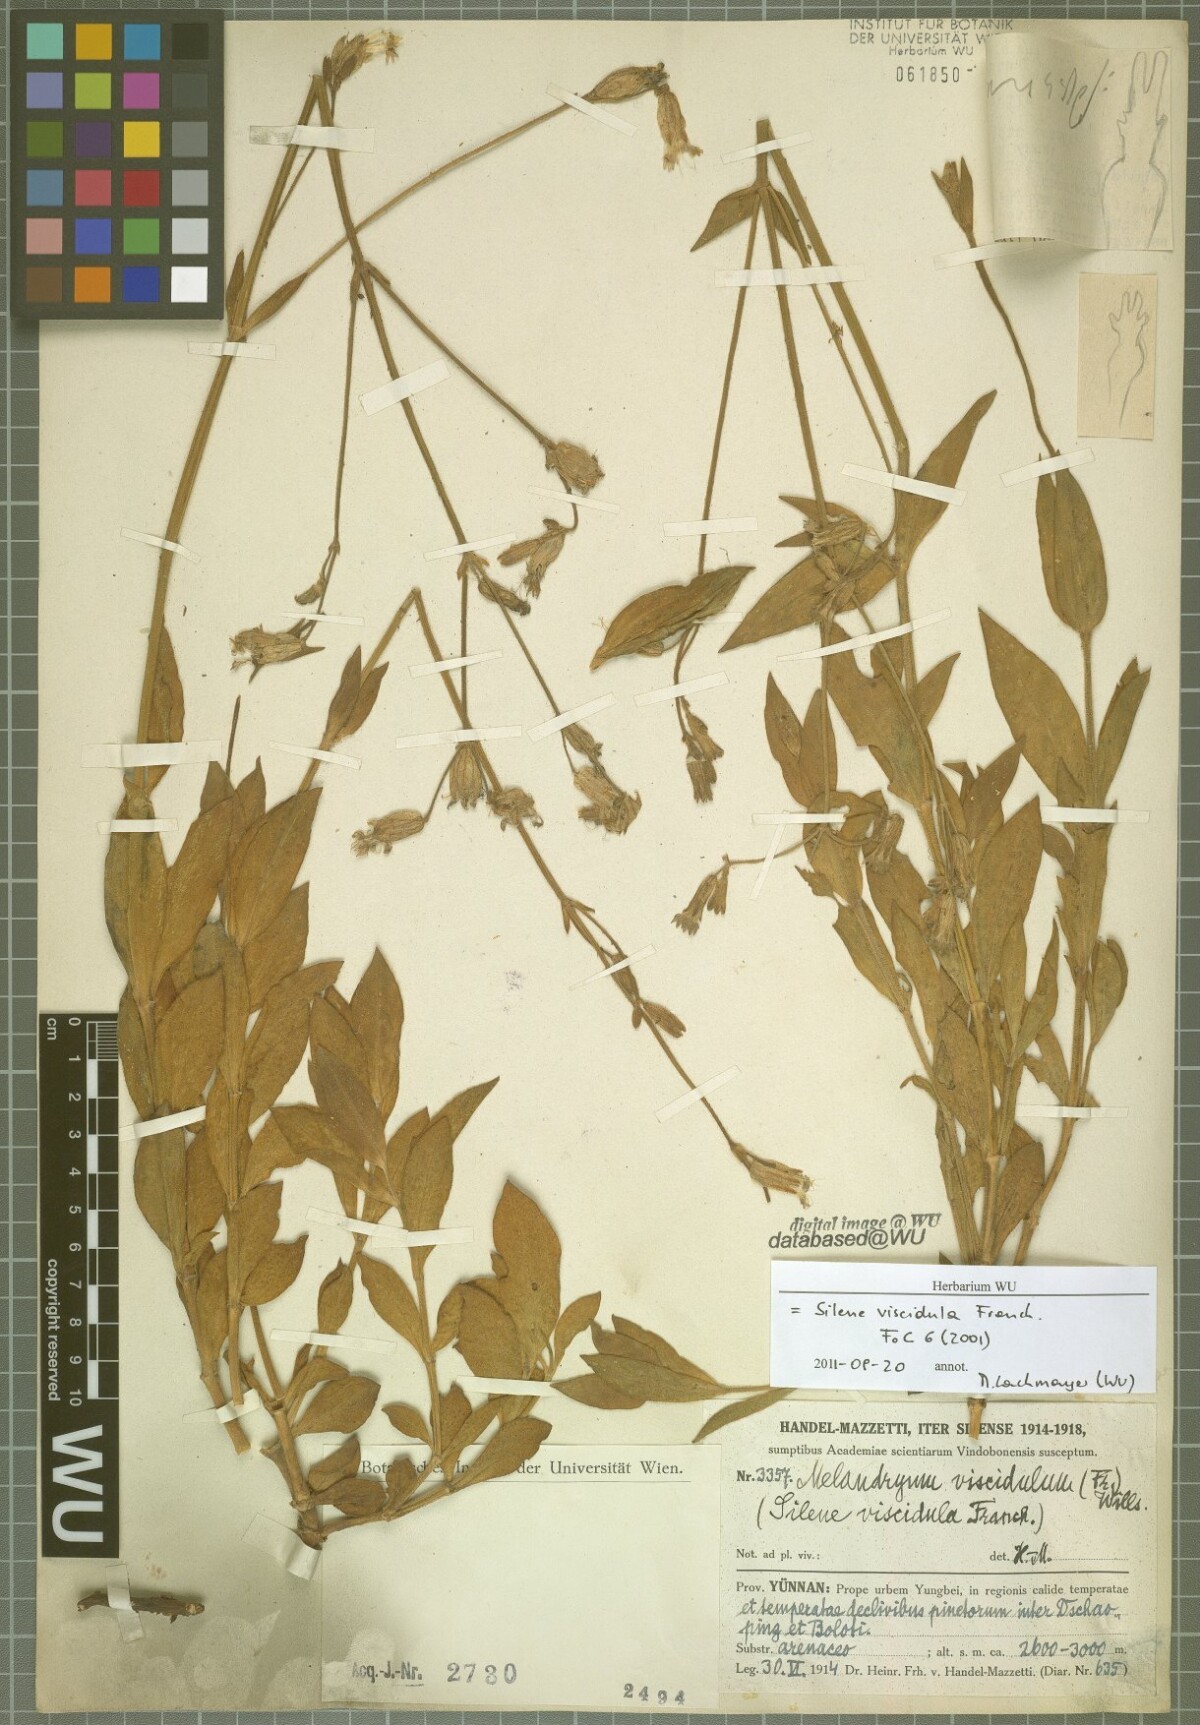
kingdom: Plantae
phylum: Tracheophyta
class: Magnoliopsida
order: Caryophyllales
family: Caryophyllaceae
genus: Silene
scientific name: Silene viscidula
